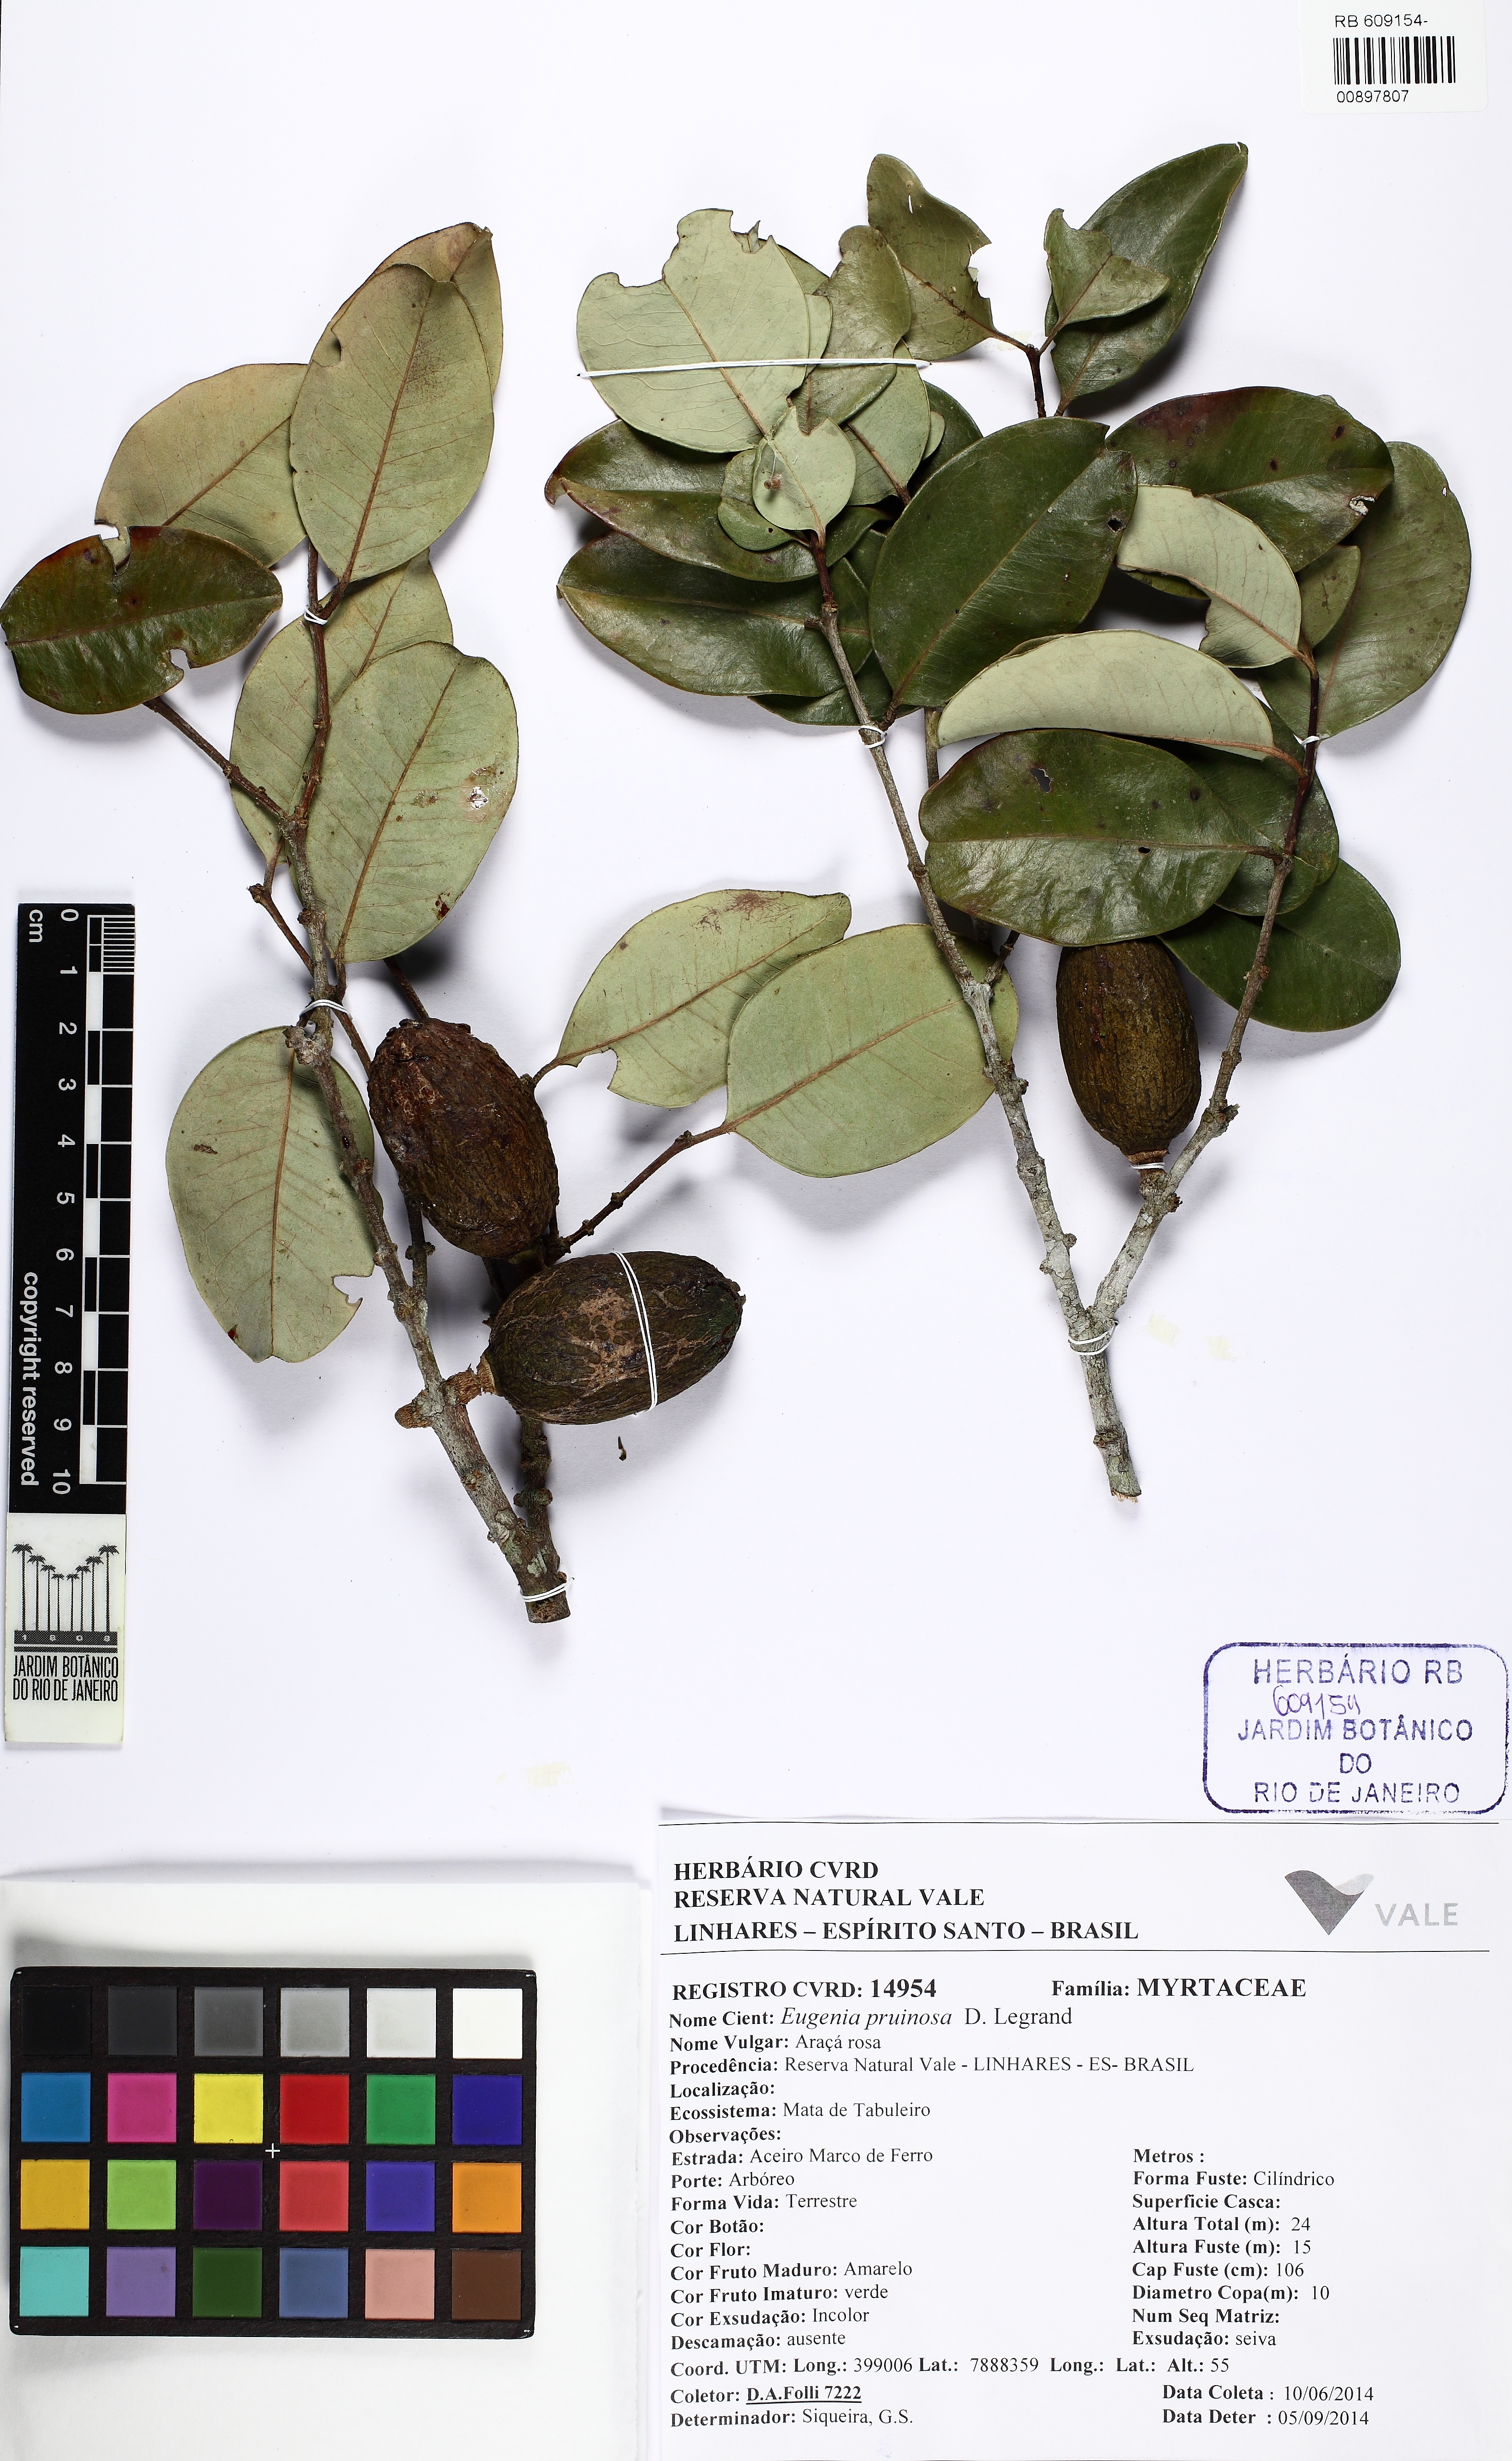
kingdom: Plantae
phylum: Tracheophyta
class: Magnoliopsida
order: Myrtales
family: Myrtaceae
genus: Eugenia
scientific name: Eugenia pruinosa
